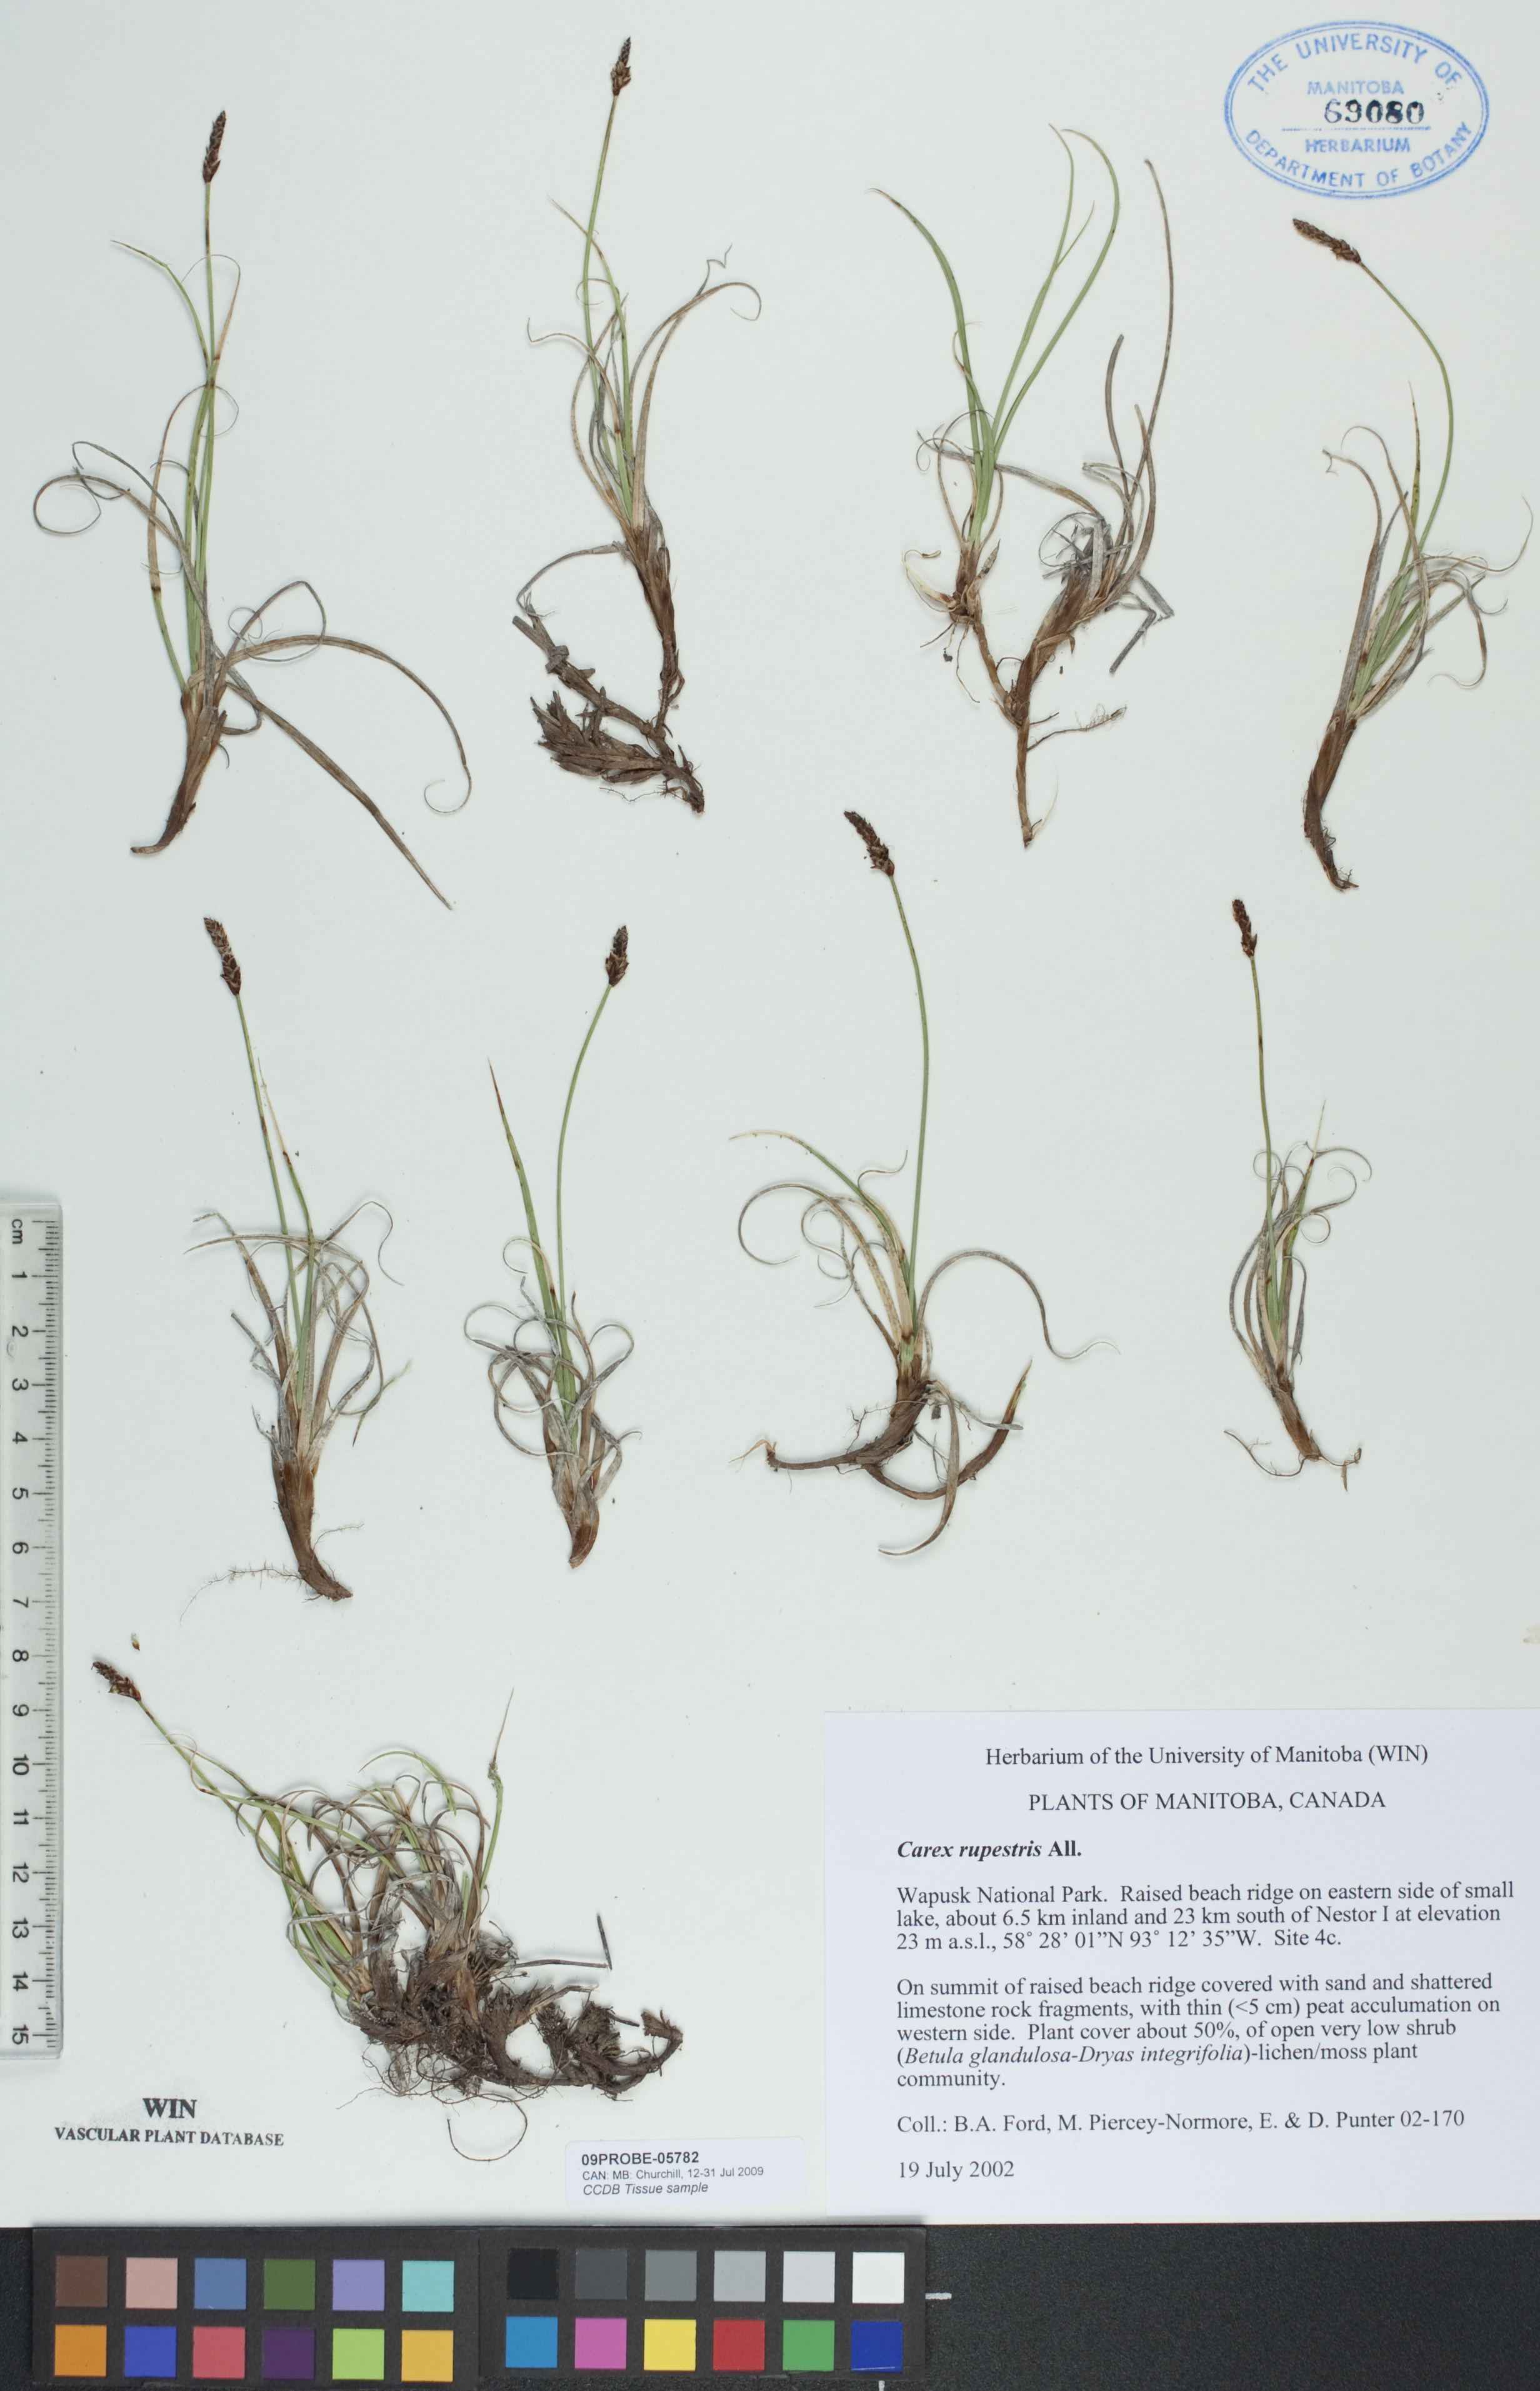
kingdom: Plantae
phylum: Tracheophyta
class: Liliopsida
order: Poales
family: Cyperaceae
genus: Carex
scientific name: Carex rupestris
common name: Rock sedge
